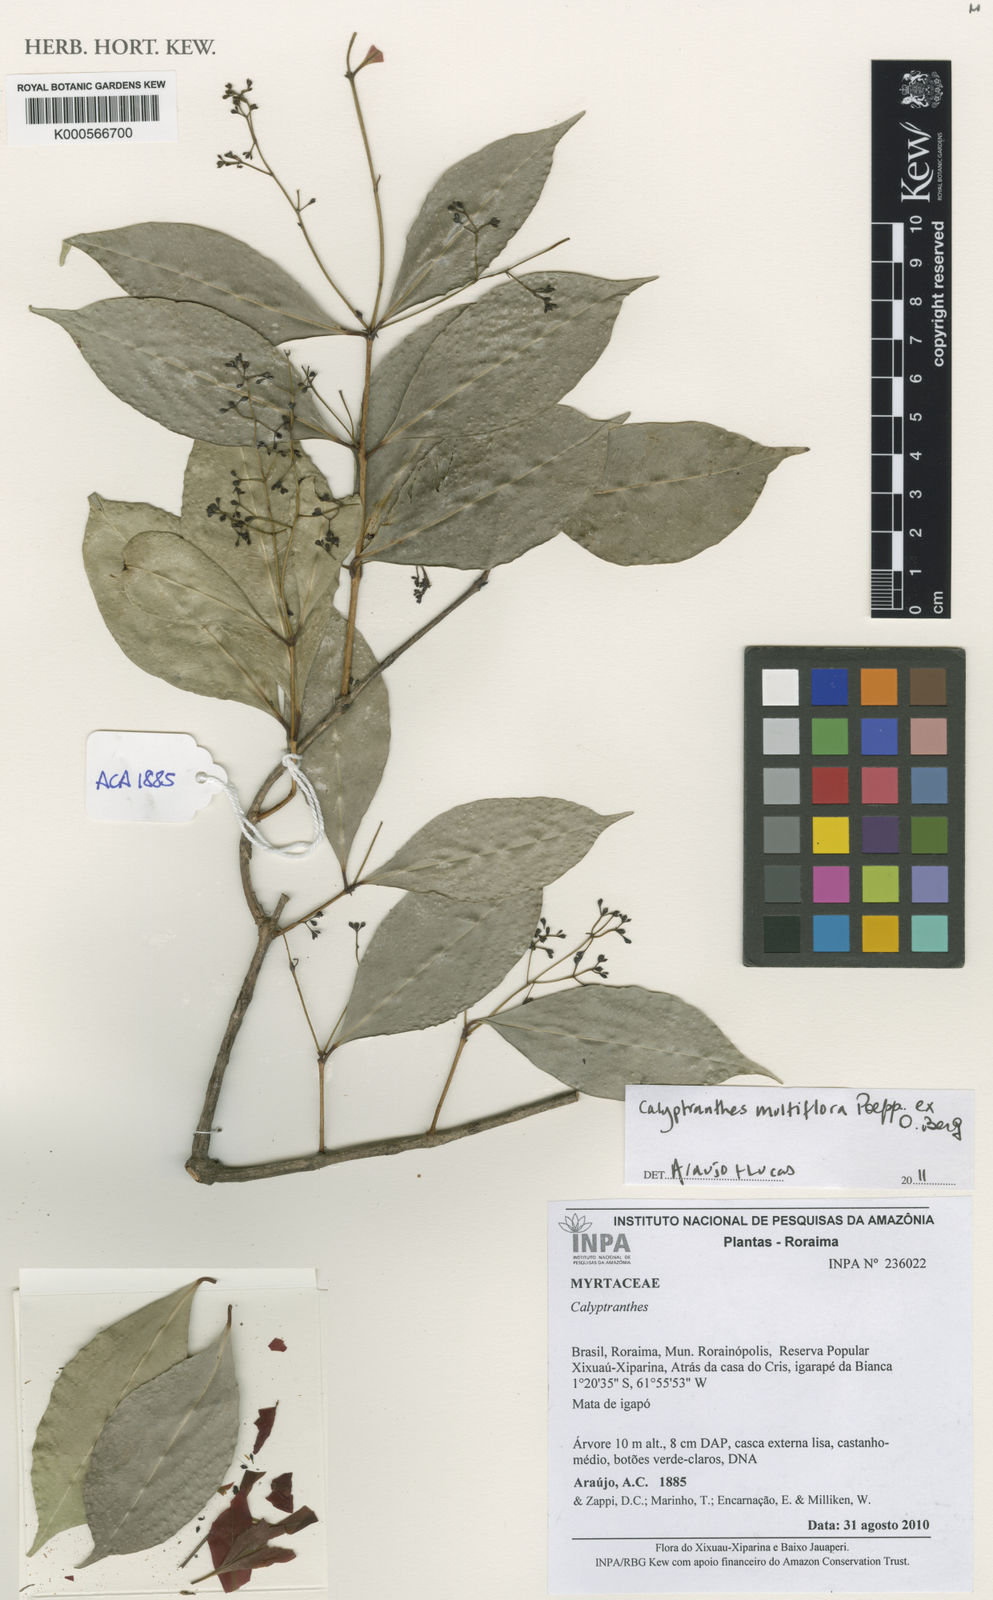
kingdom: Plantae
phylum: Tracheophyta
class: Magnoliopsida
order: Myrtales
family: Myrtaceae
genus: Myrcia
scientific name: Myrcia aulomyrcioides
